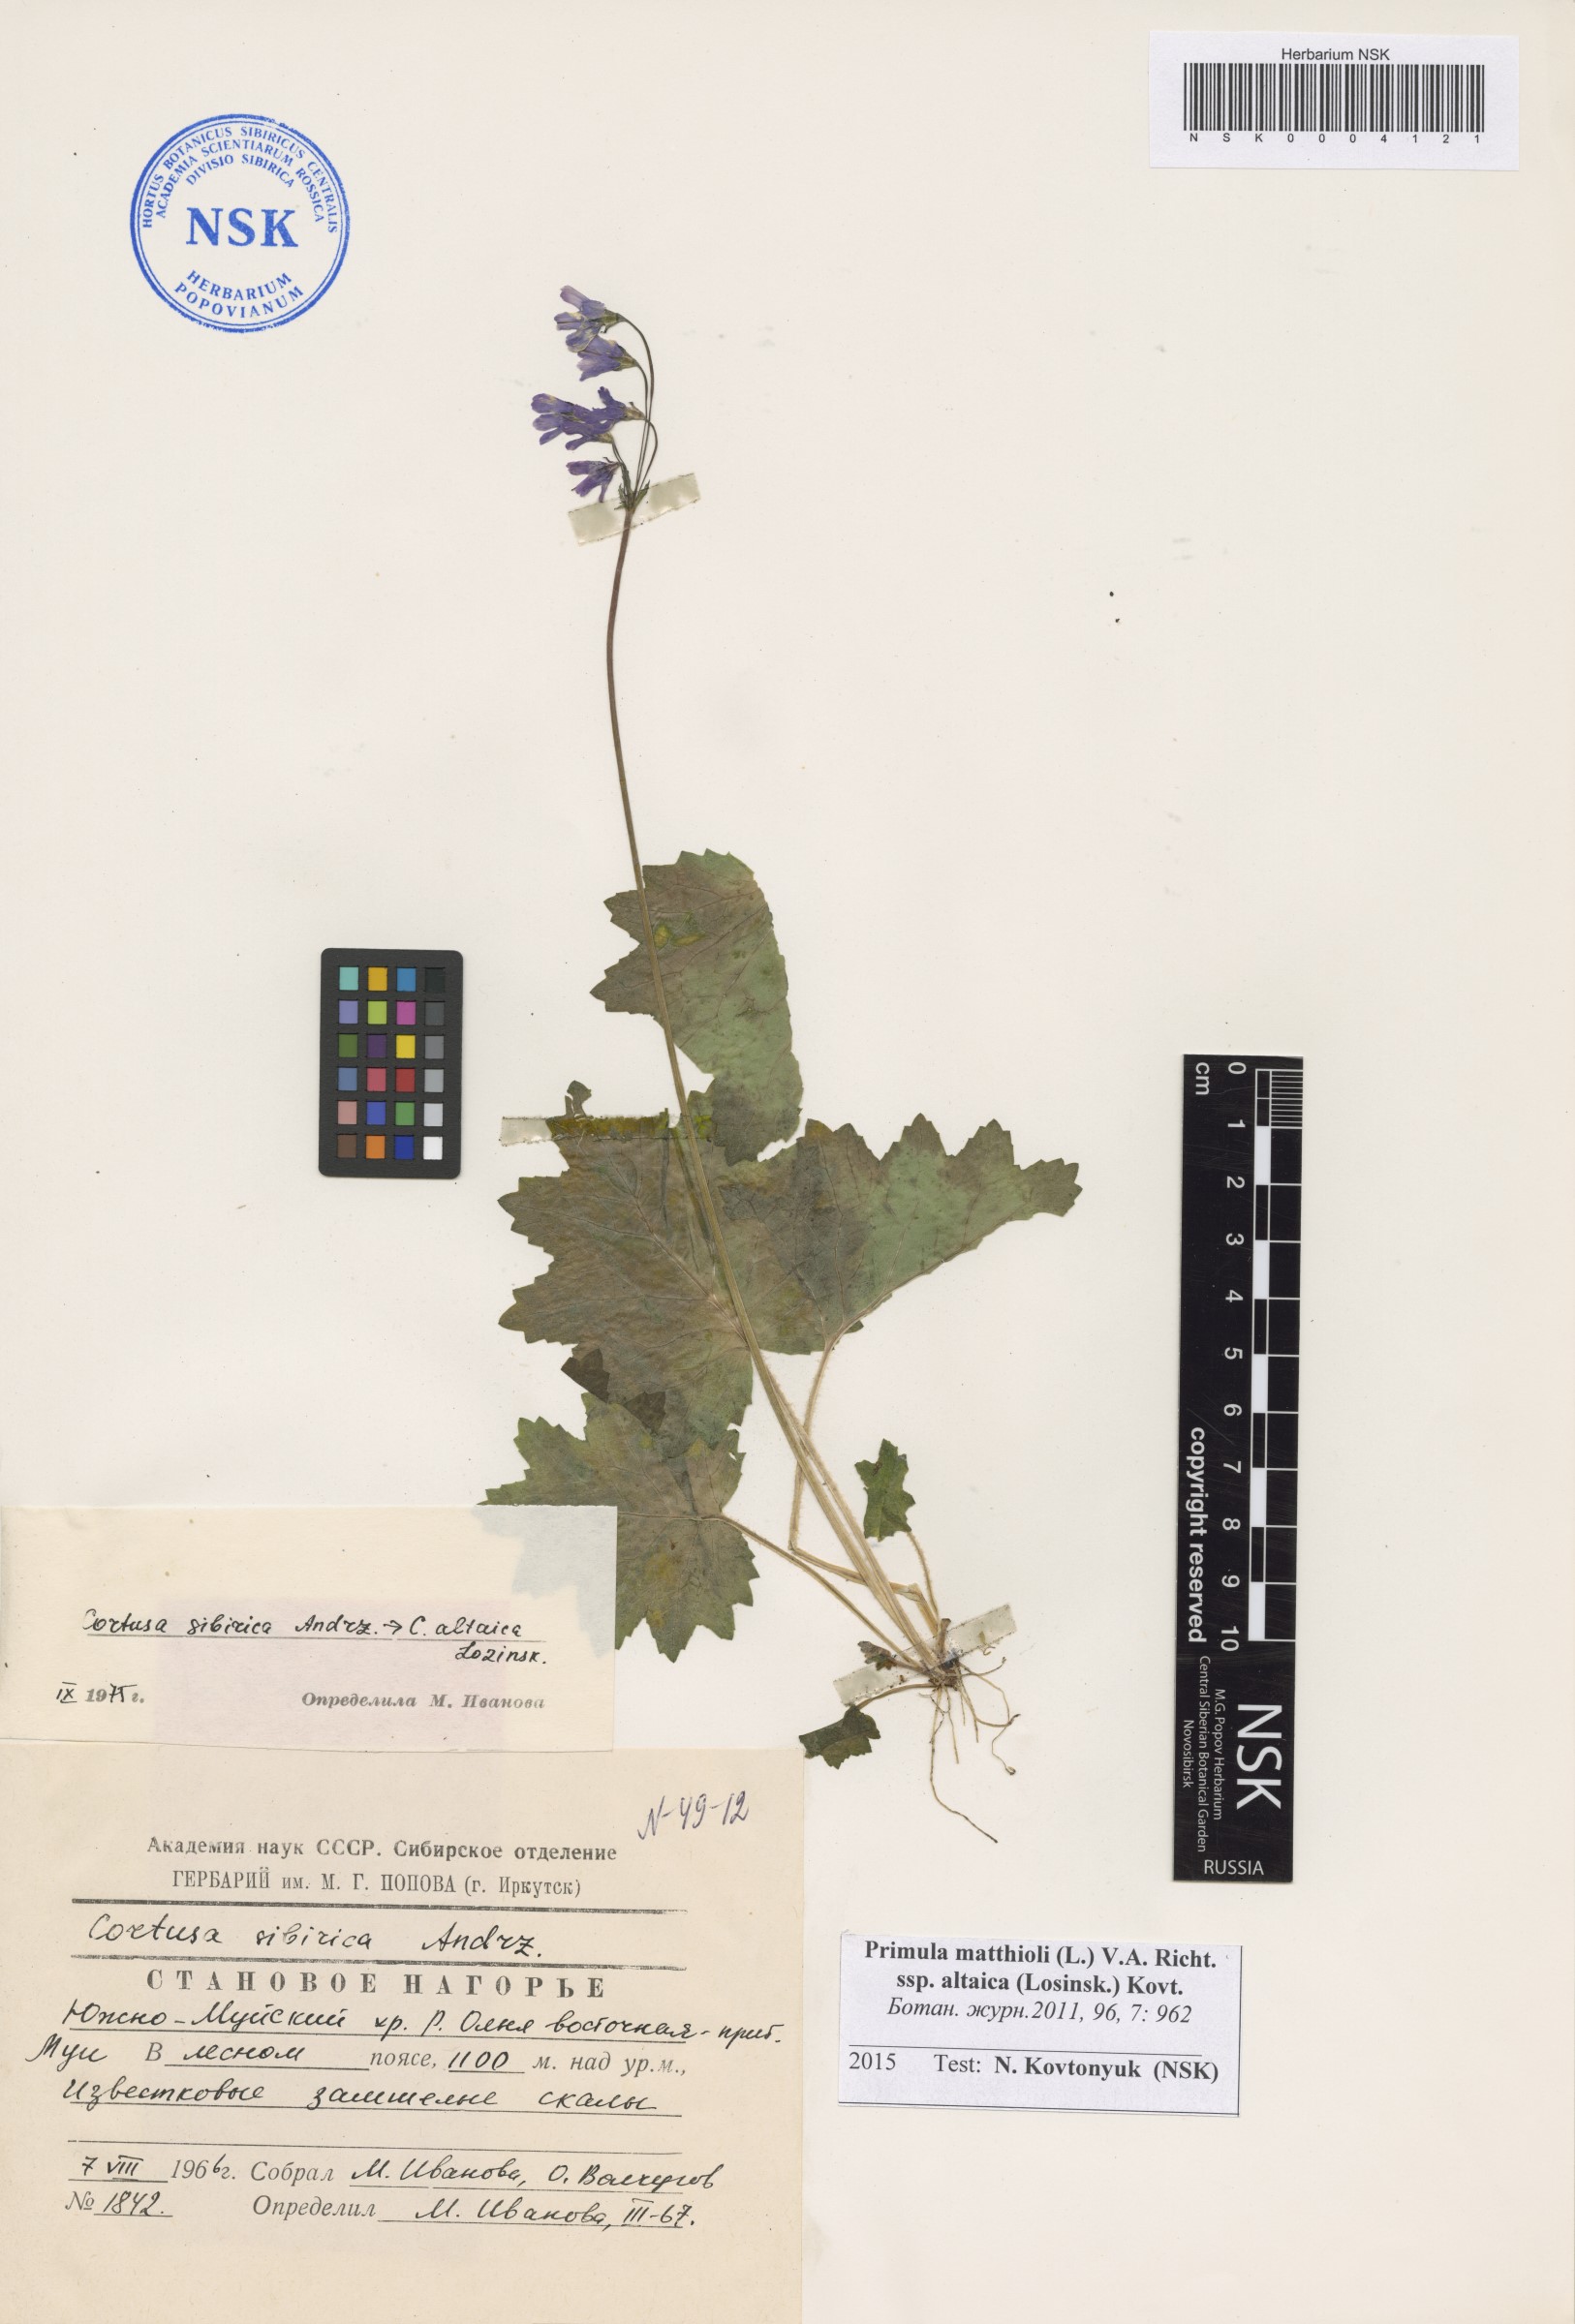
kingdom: Plantae
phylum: Tracheophyta
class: Magnoliopsida
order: Ericales
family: Primulaceae
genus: Primula
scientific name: Primula matthioli
